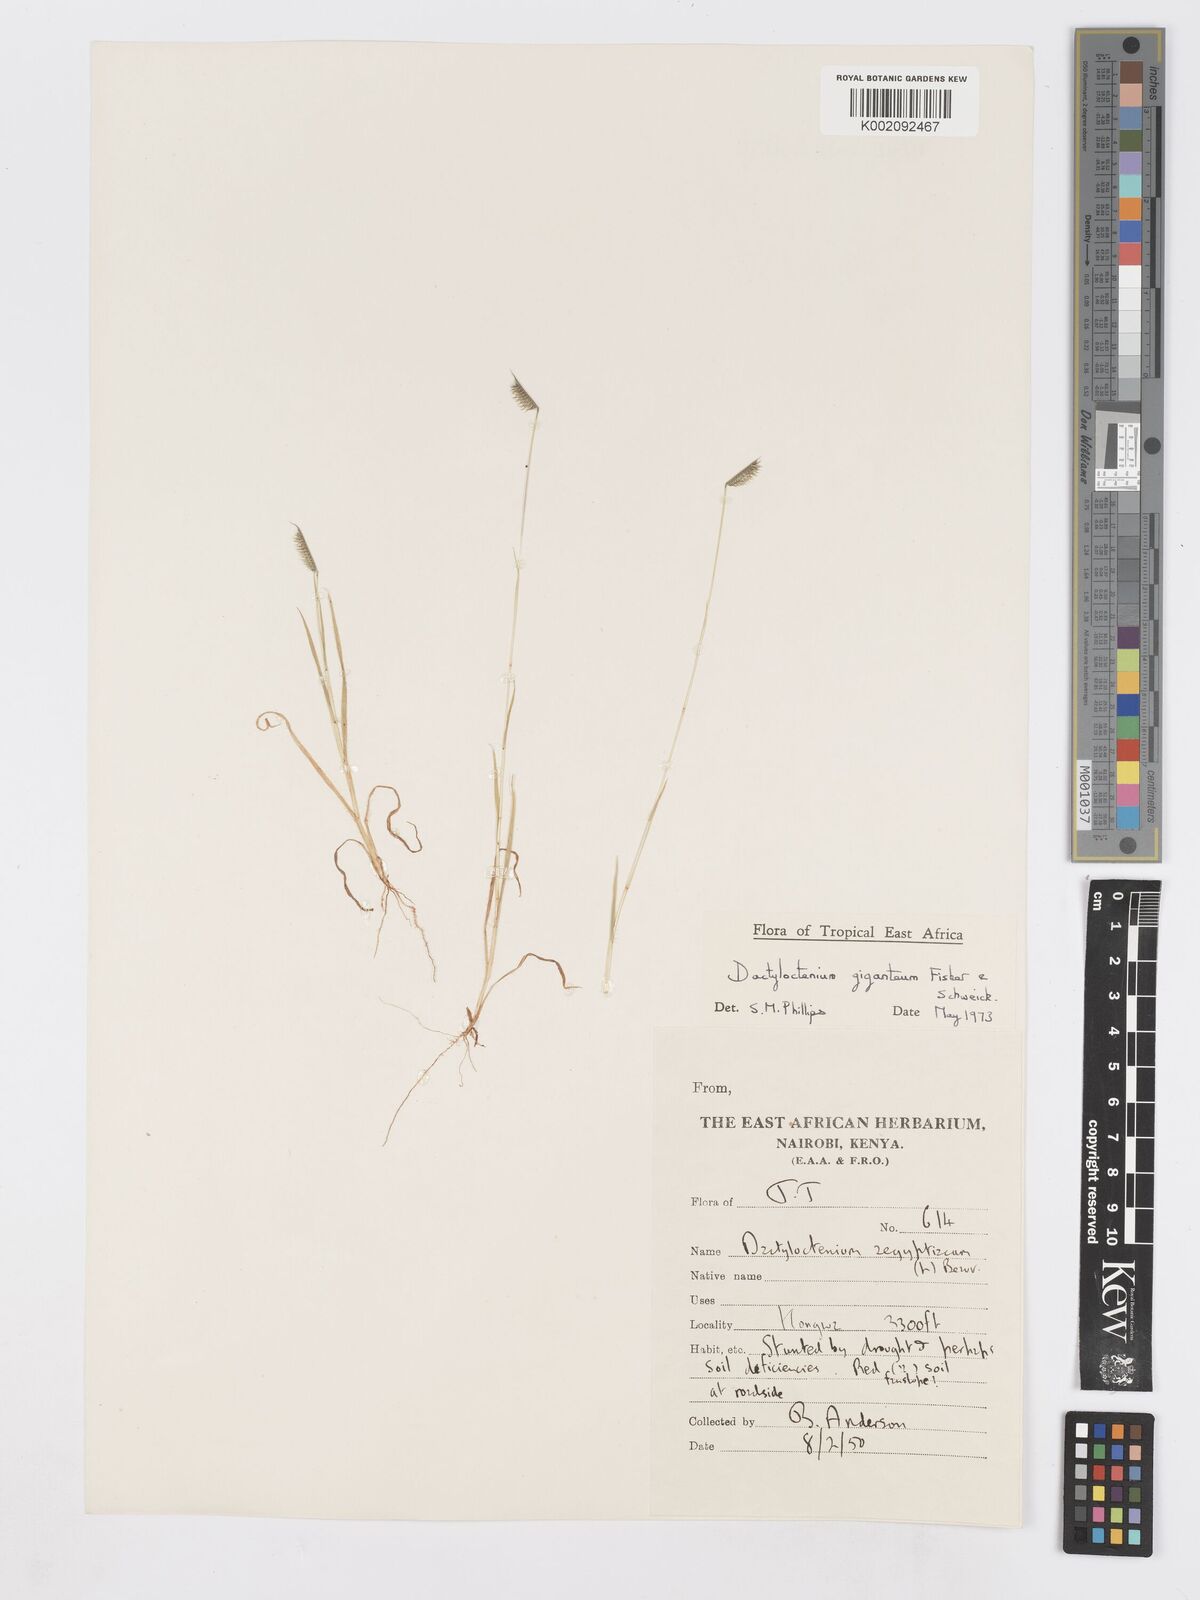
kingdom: Plantae
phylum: Tracheophyta
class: Liliopsida
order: Poales
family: Poaceae
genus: Dactyloctenium
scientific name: Dactyloctenium giganteum
